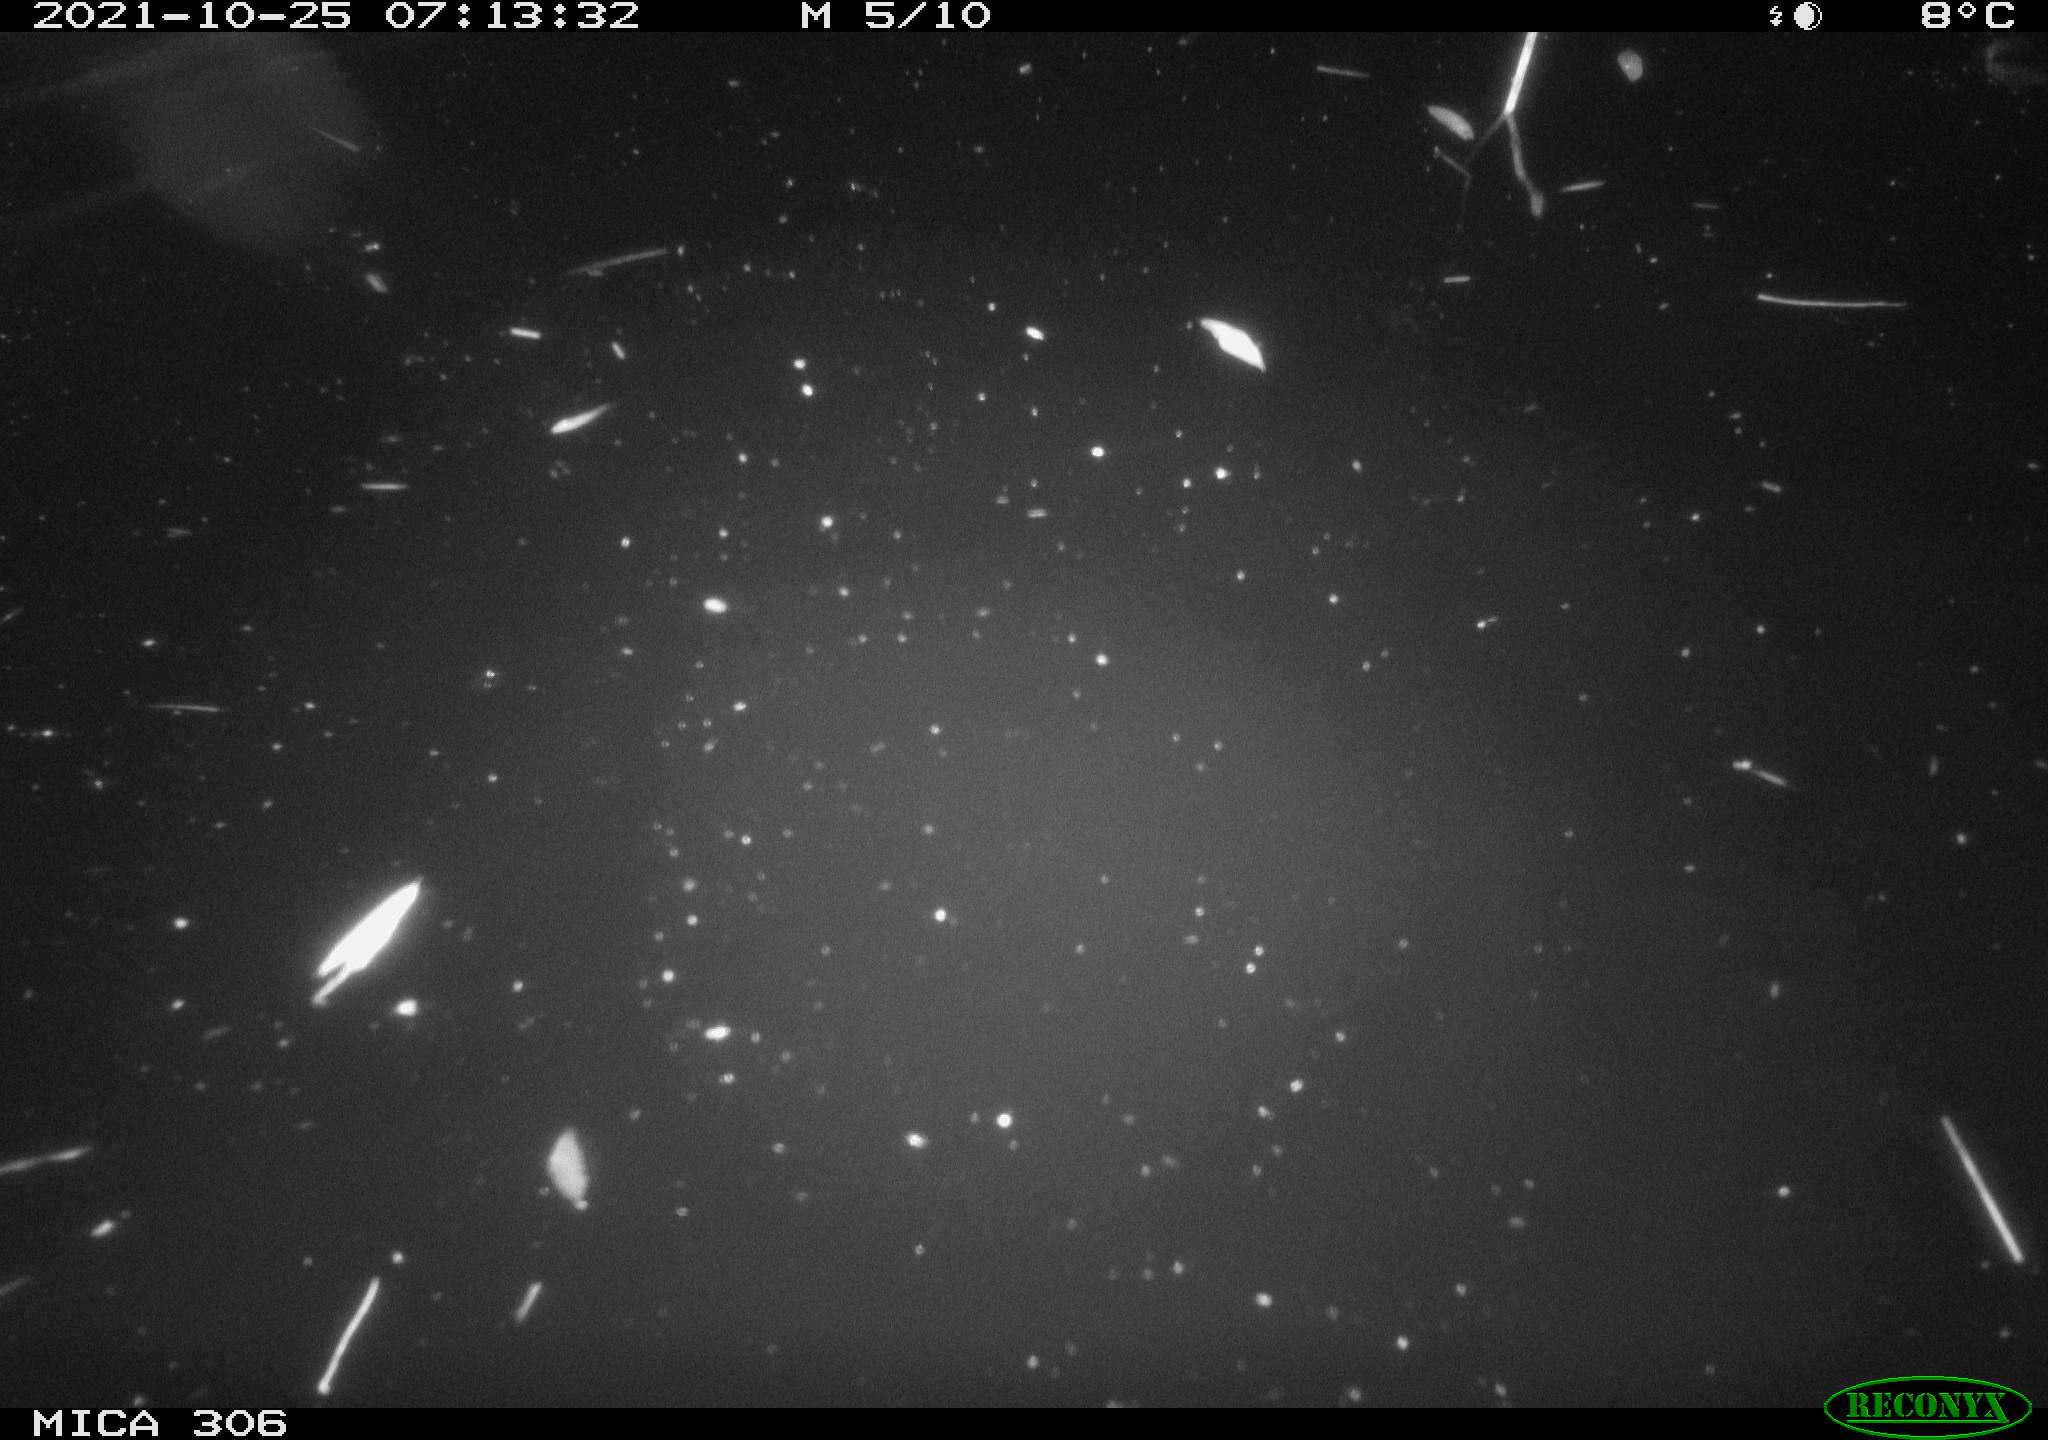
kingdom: Animalia
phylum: Chordata
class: Mammalia
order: Rodentia
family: Cricetidae
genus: Ondatra
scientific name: Ondatra zibethicus
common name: Muskrat
